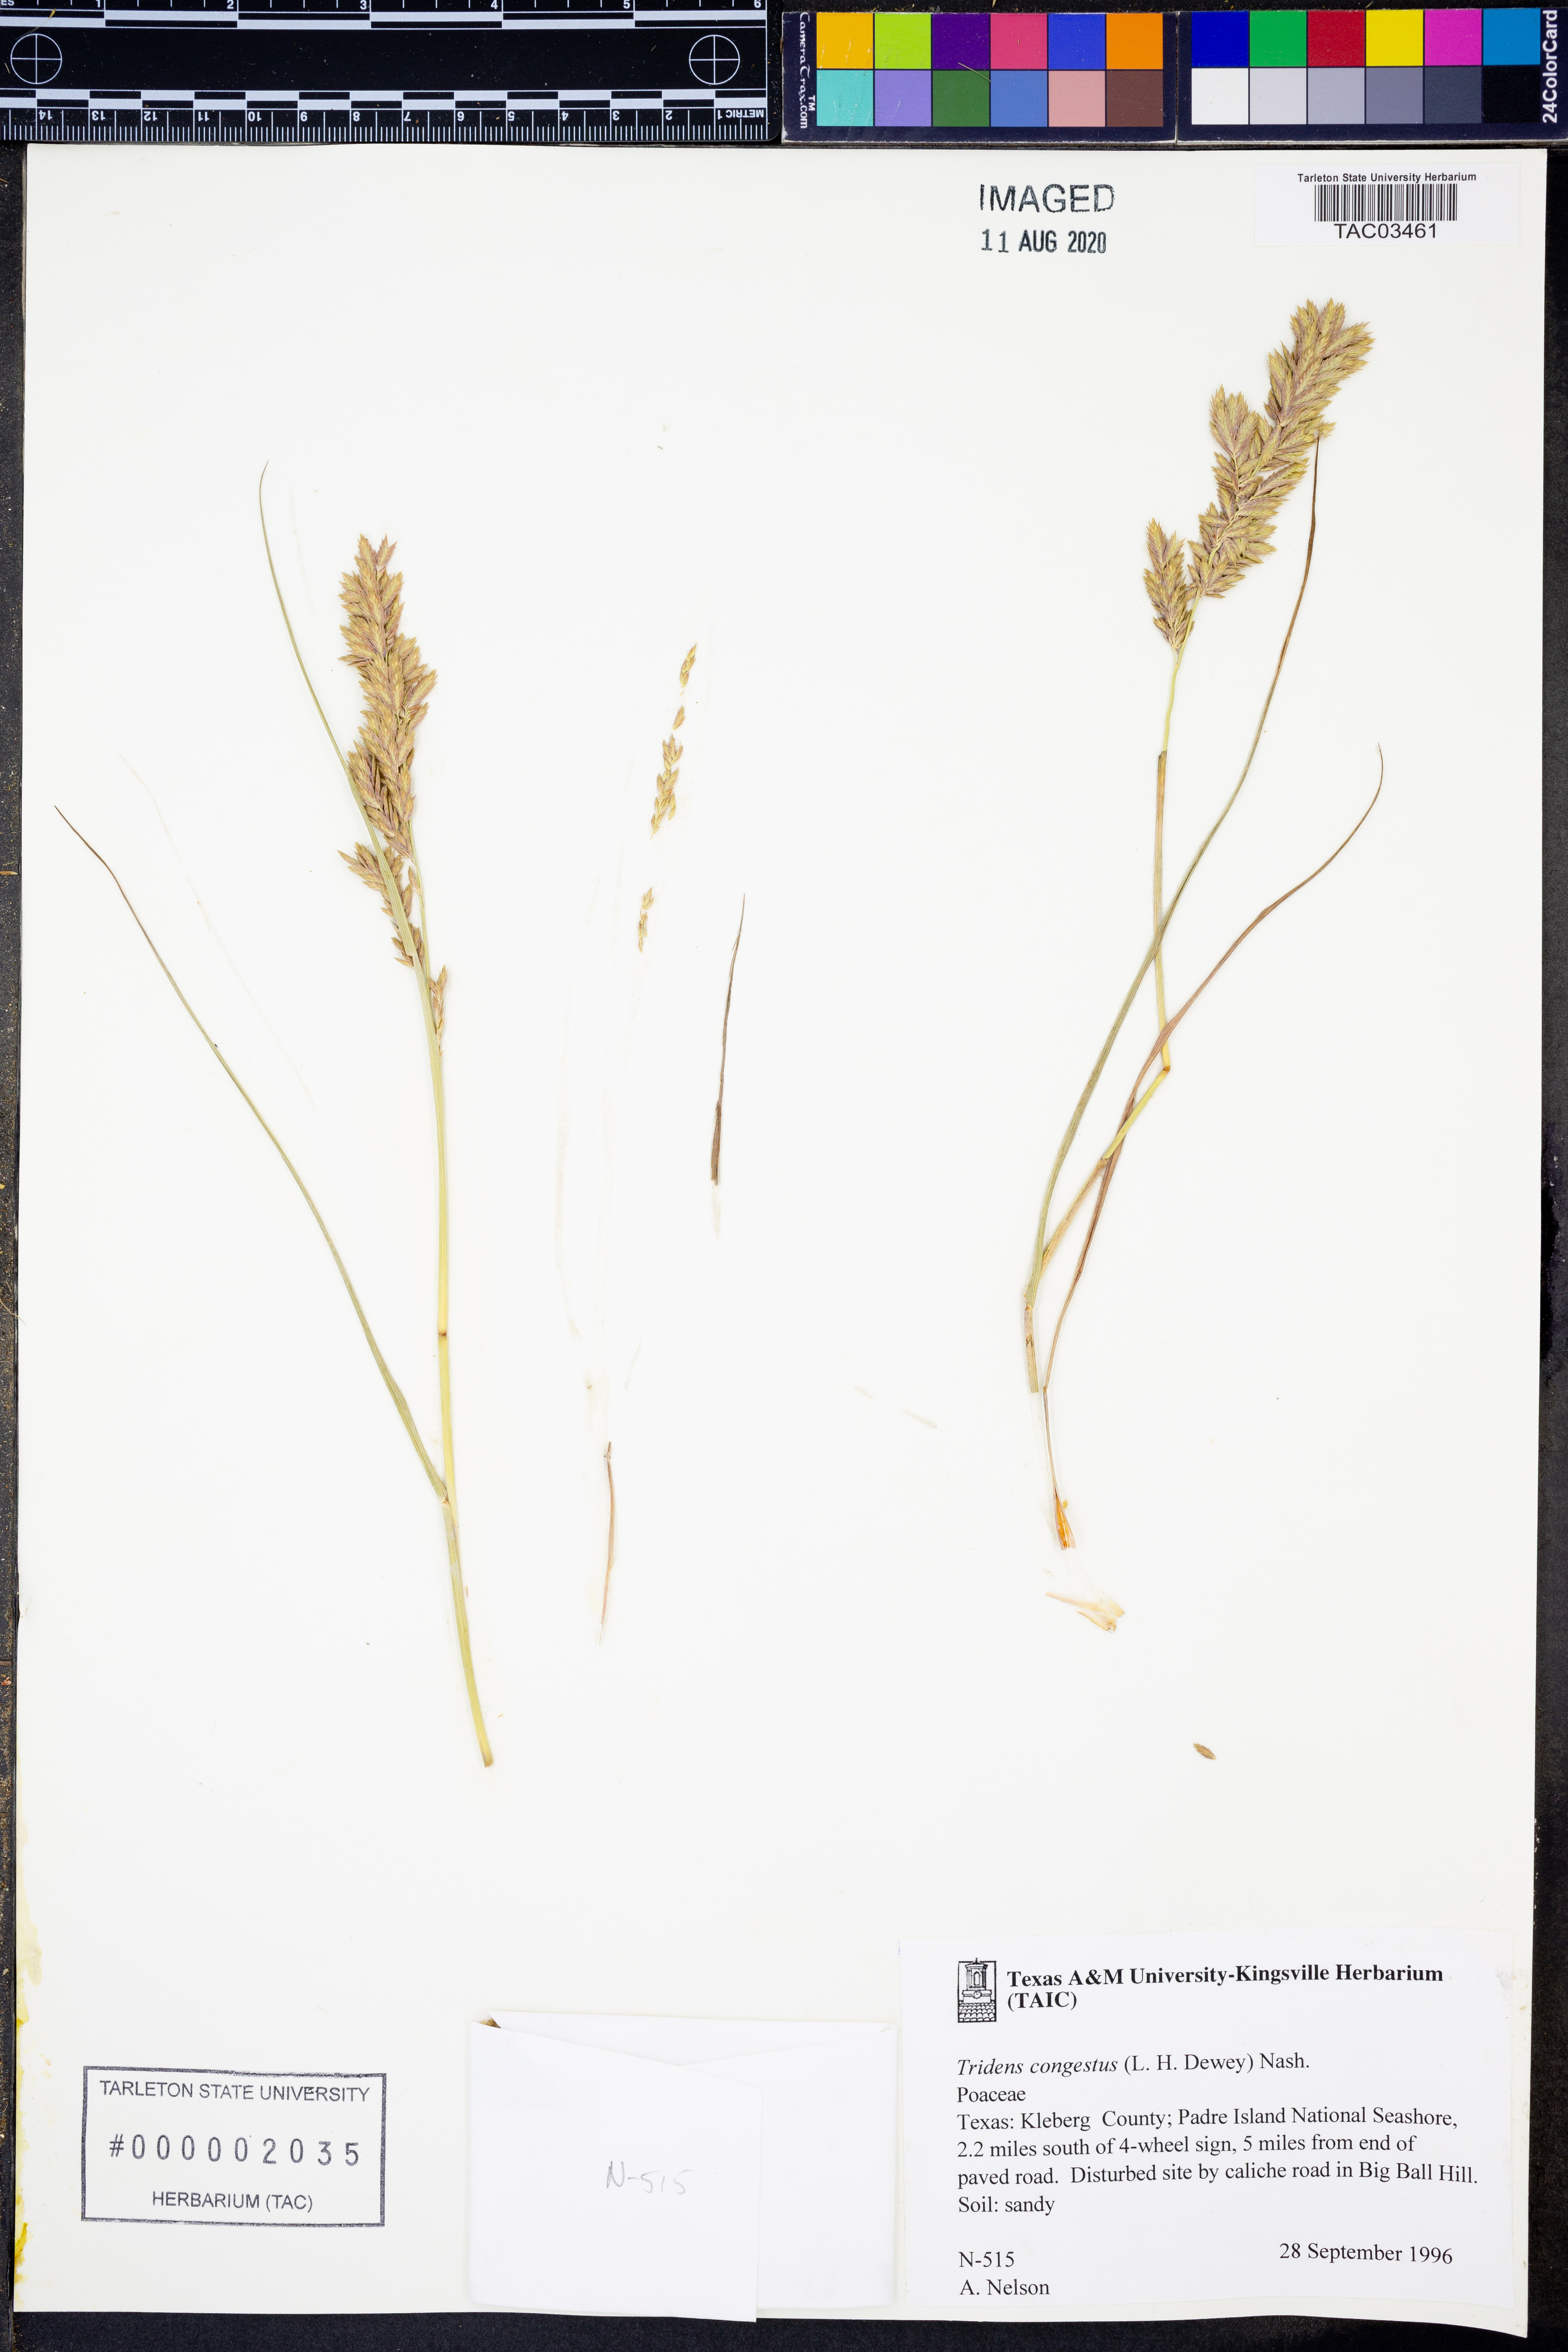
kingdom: Plantae
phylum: Tracheophyta
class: Liliopsida
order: Poales
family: Poaceae
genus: Tridens
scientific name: Tridens congestus
